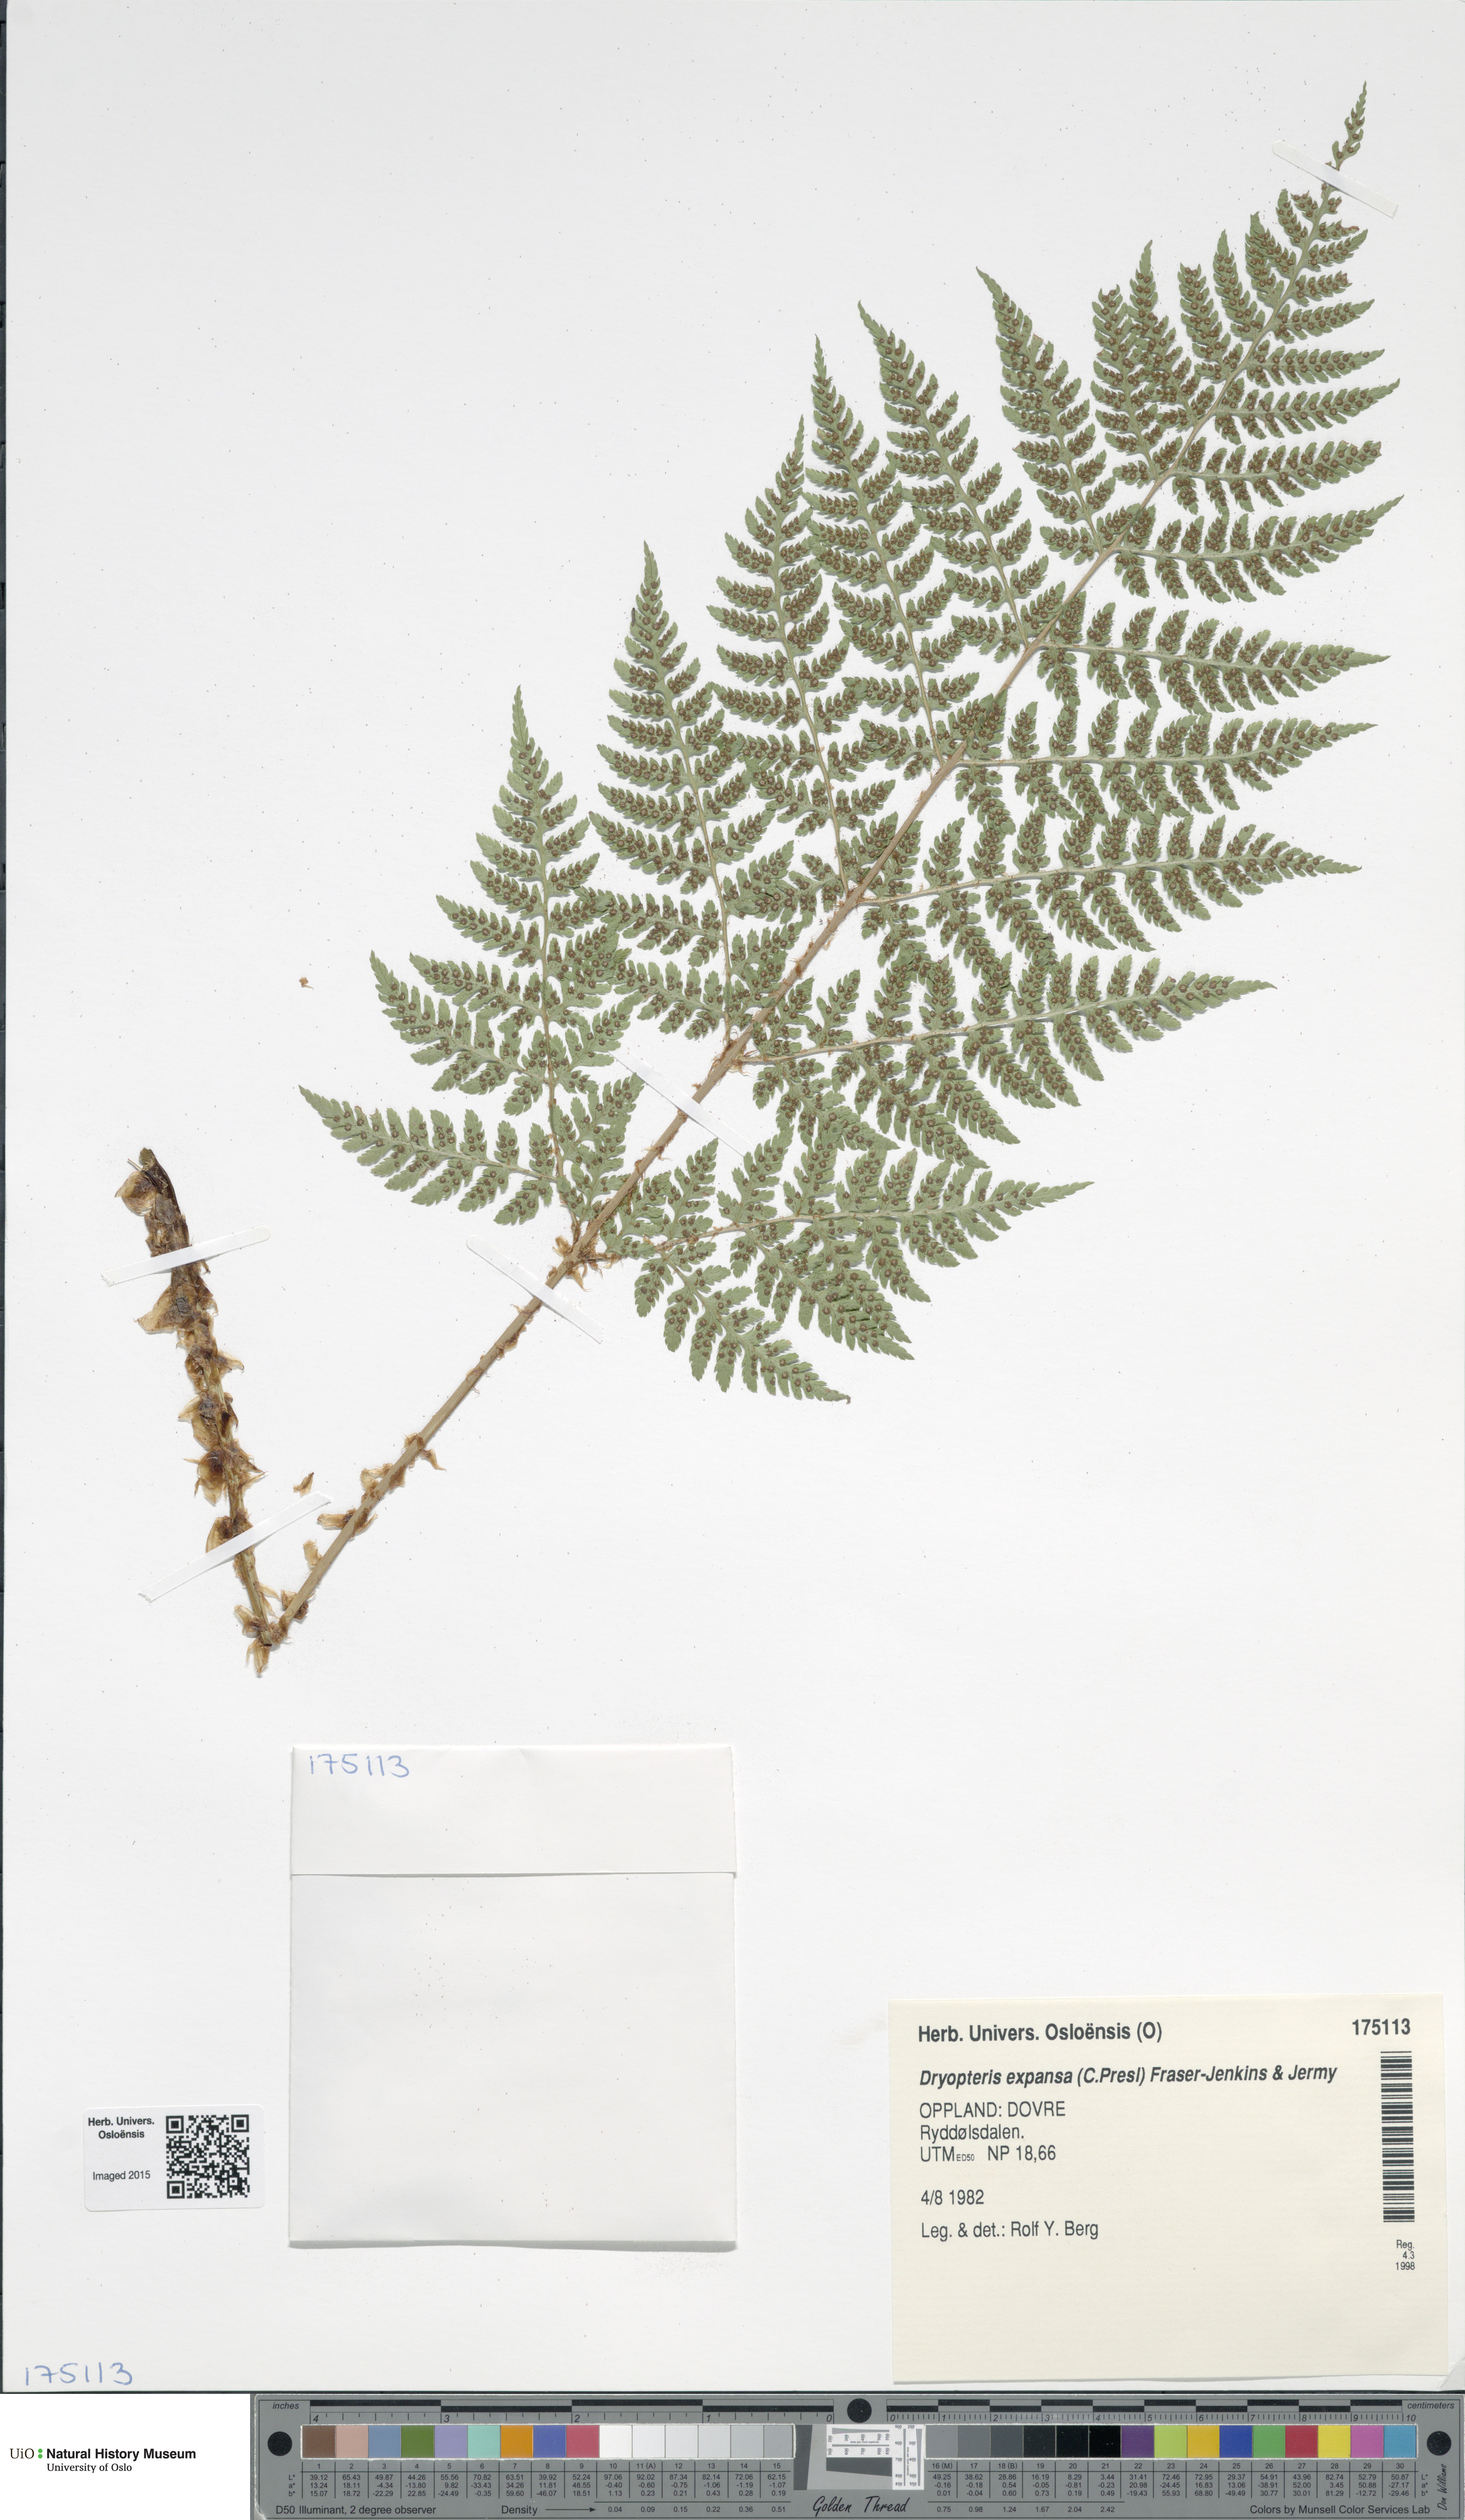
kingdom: Plantae
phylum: Tracheophyta
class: Polypodiopsida
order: Polypodiales
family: Dryopteridaceae
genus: Dryopteris
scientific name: Dryopteris expansa
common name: Northern buckler fern
